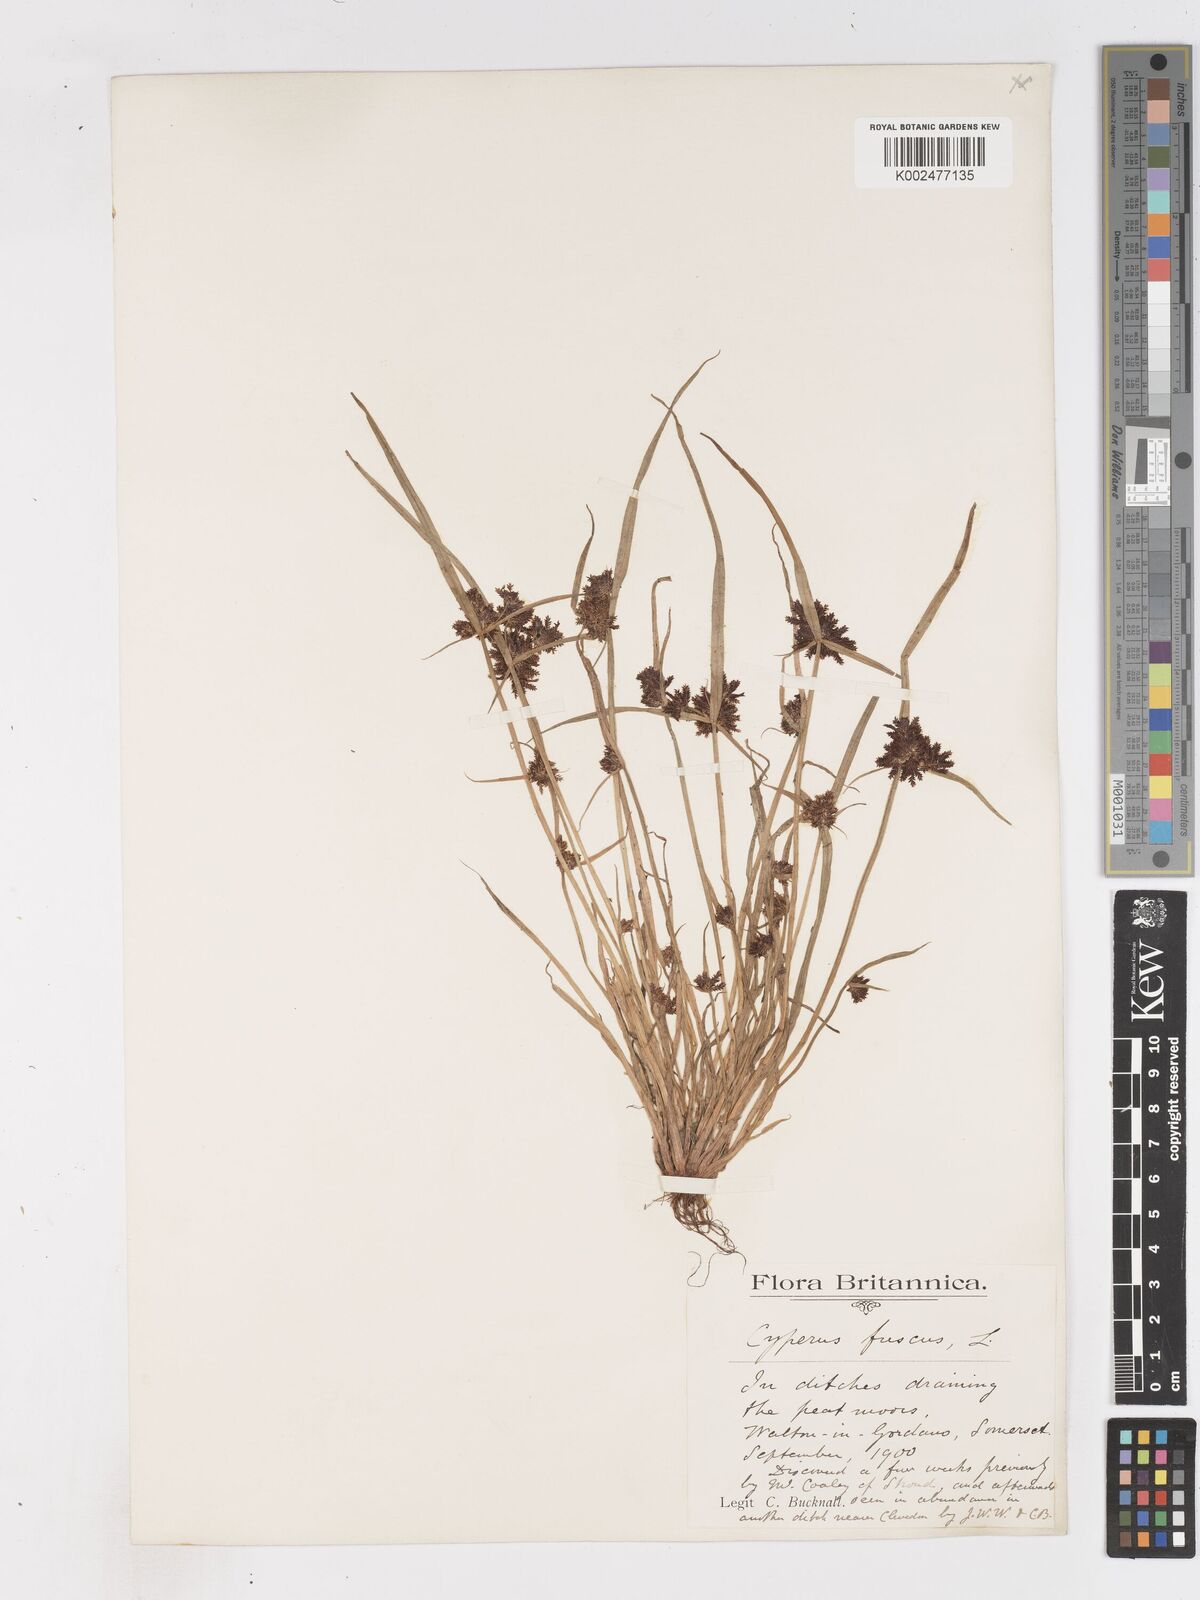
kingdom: Plantae
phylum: Tracheophyta
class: Liliopsida
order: Poales
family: Cyperaceae
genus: Cyperus
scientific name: Cyperus fuscus
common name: Brown galingale
